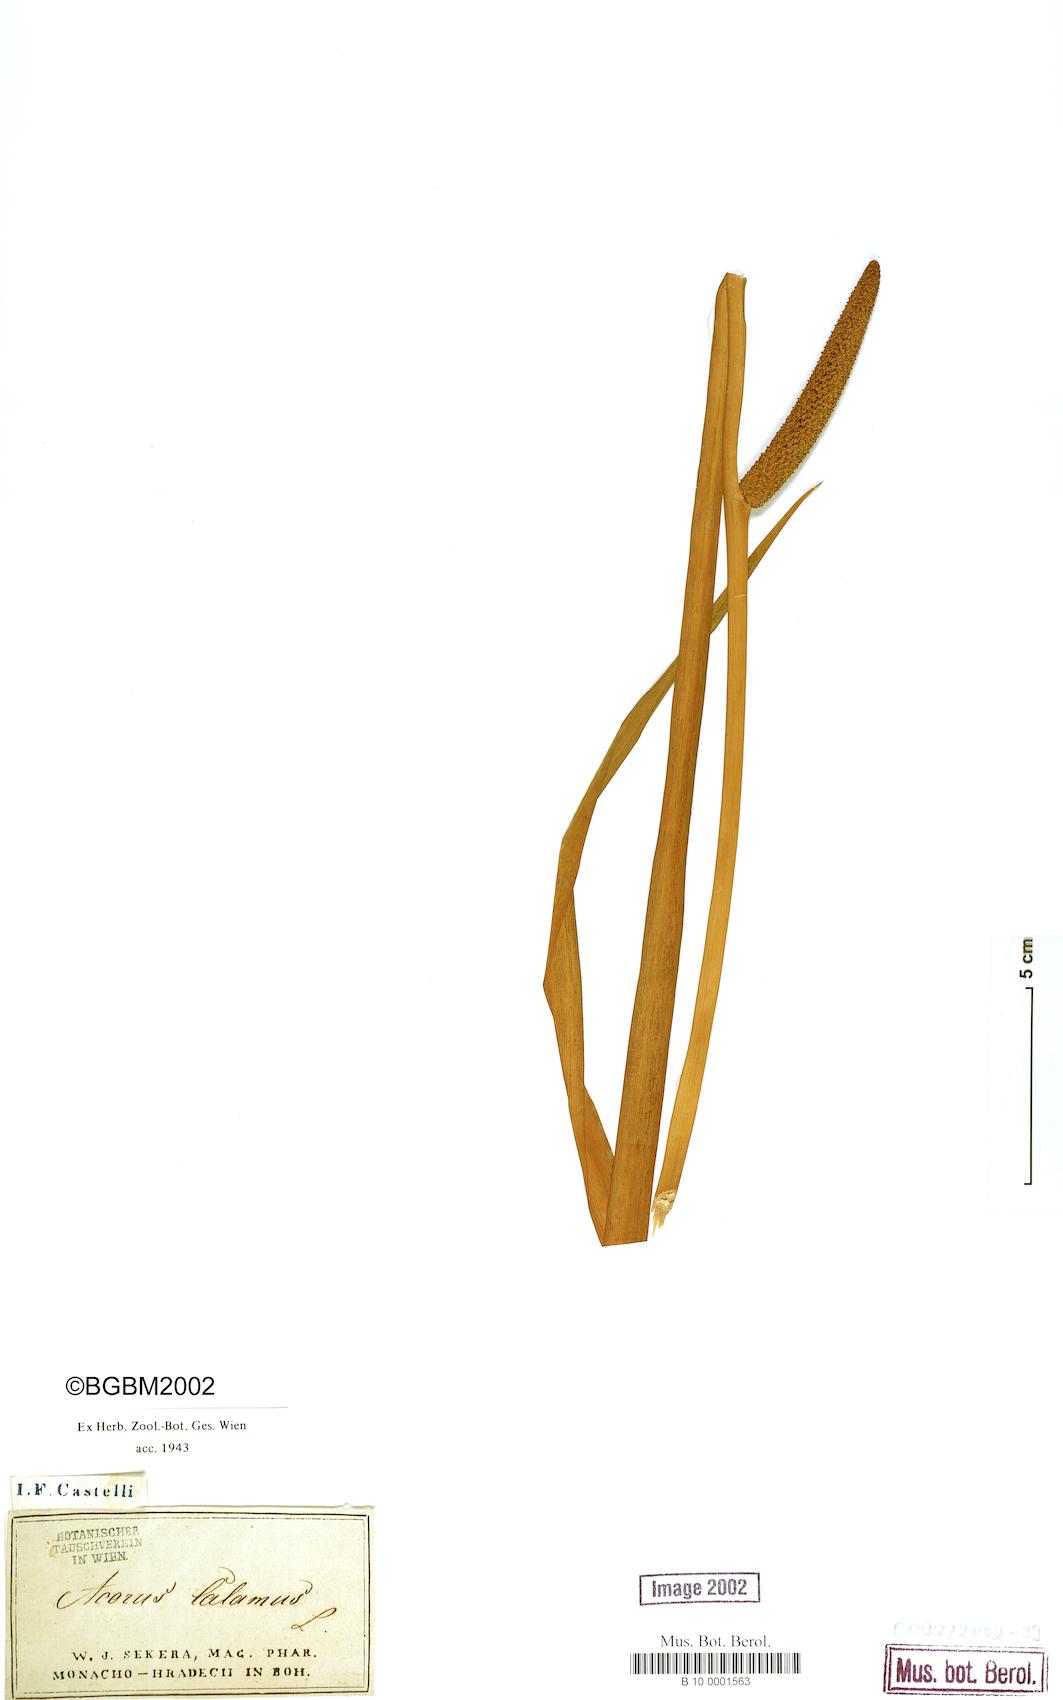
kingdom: Plantae
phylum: Tracheophyta
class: Liliopsida
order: Acorales
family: Acoraceae
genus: Acorus
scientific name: Acorus calamus
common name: Sweet-flag
